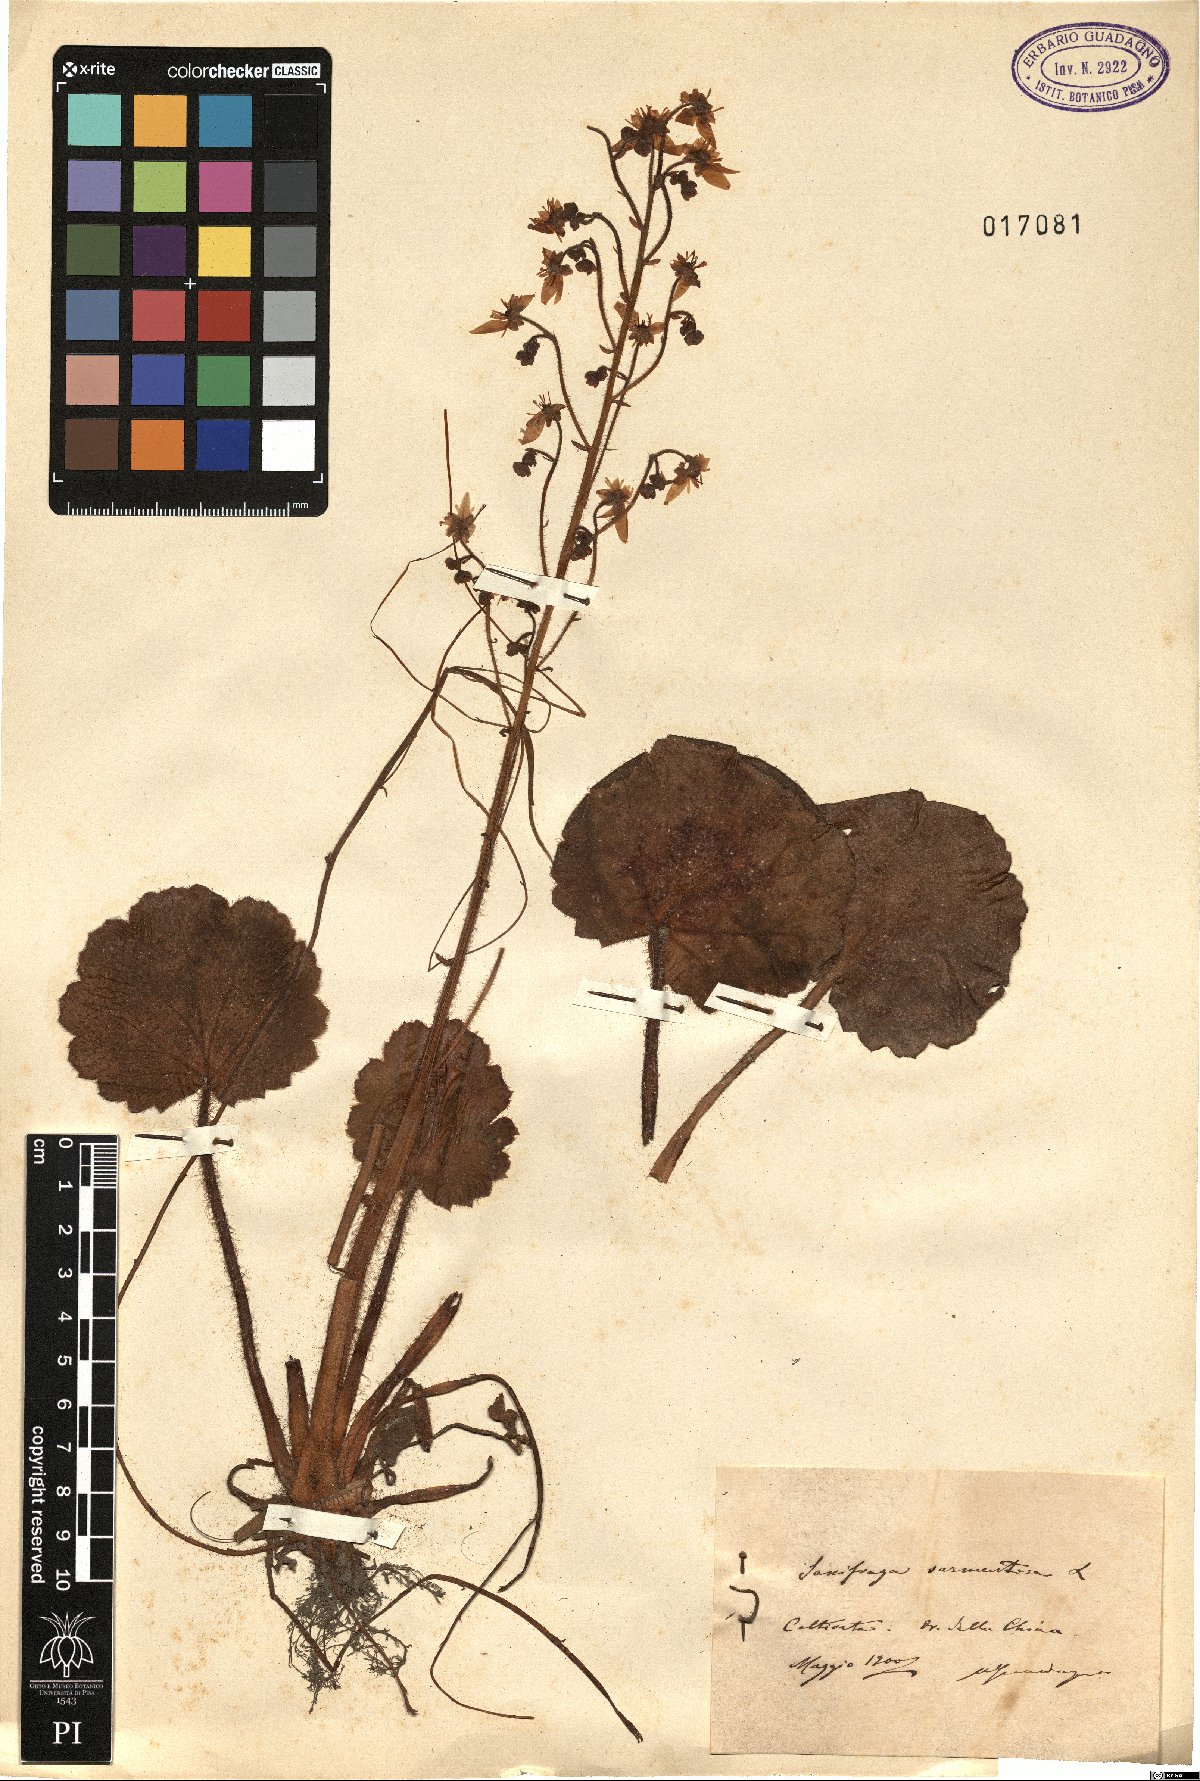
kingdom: Plantae
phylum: Tracheophyta
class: Magnoliopsida
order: Saxifragales
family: Saxifragaceae
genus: Saxifraga
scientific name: Saxifraga stolonifera
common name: Creeping saxifrage
